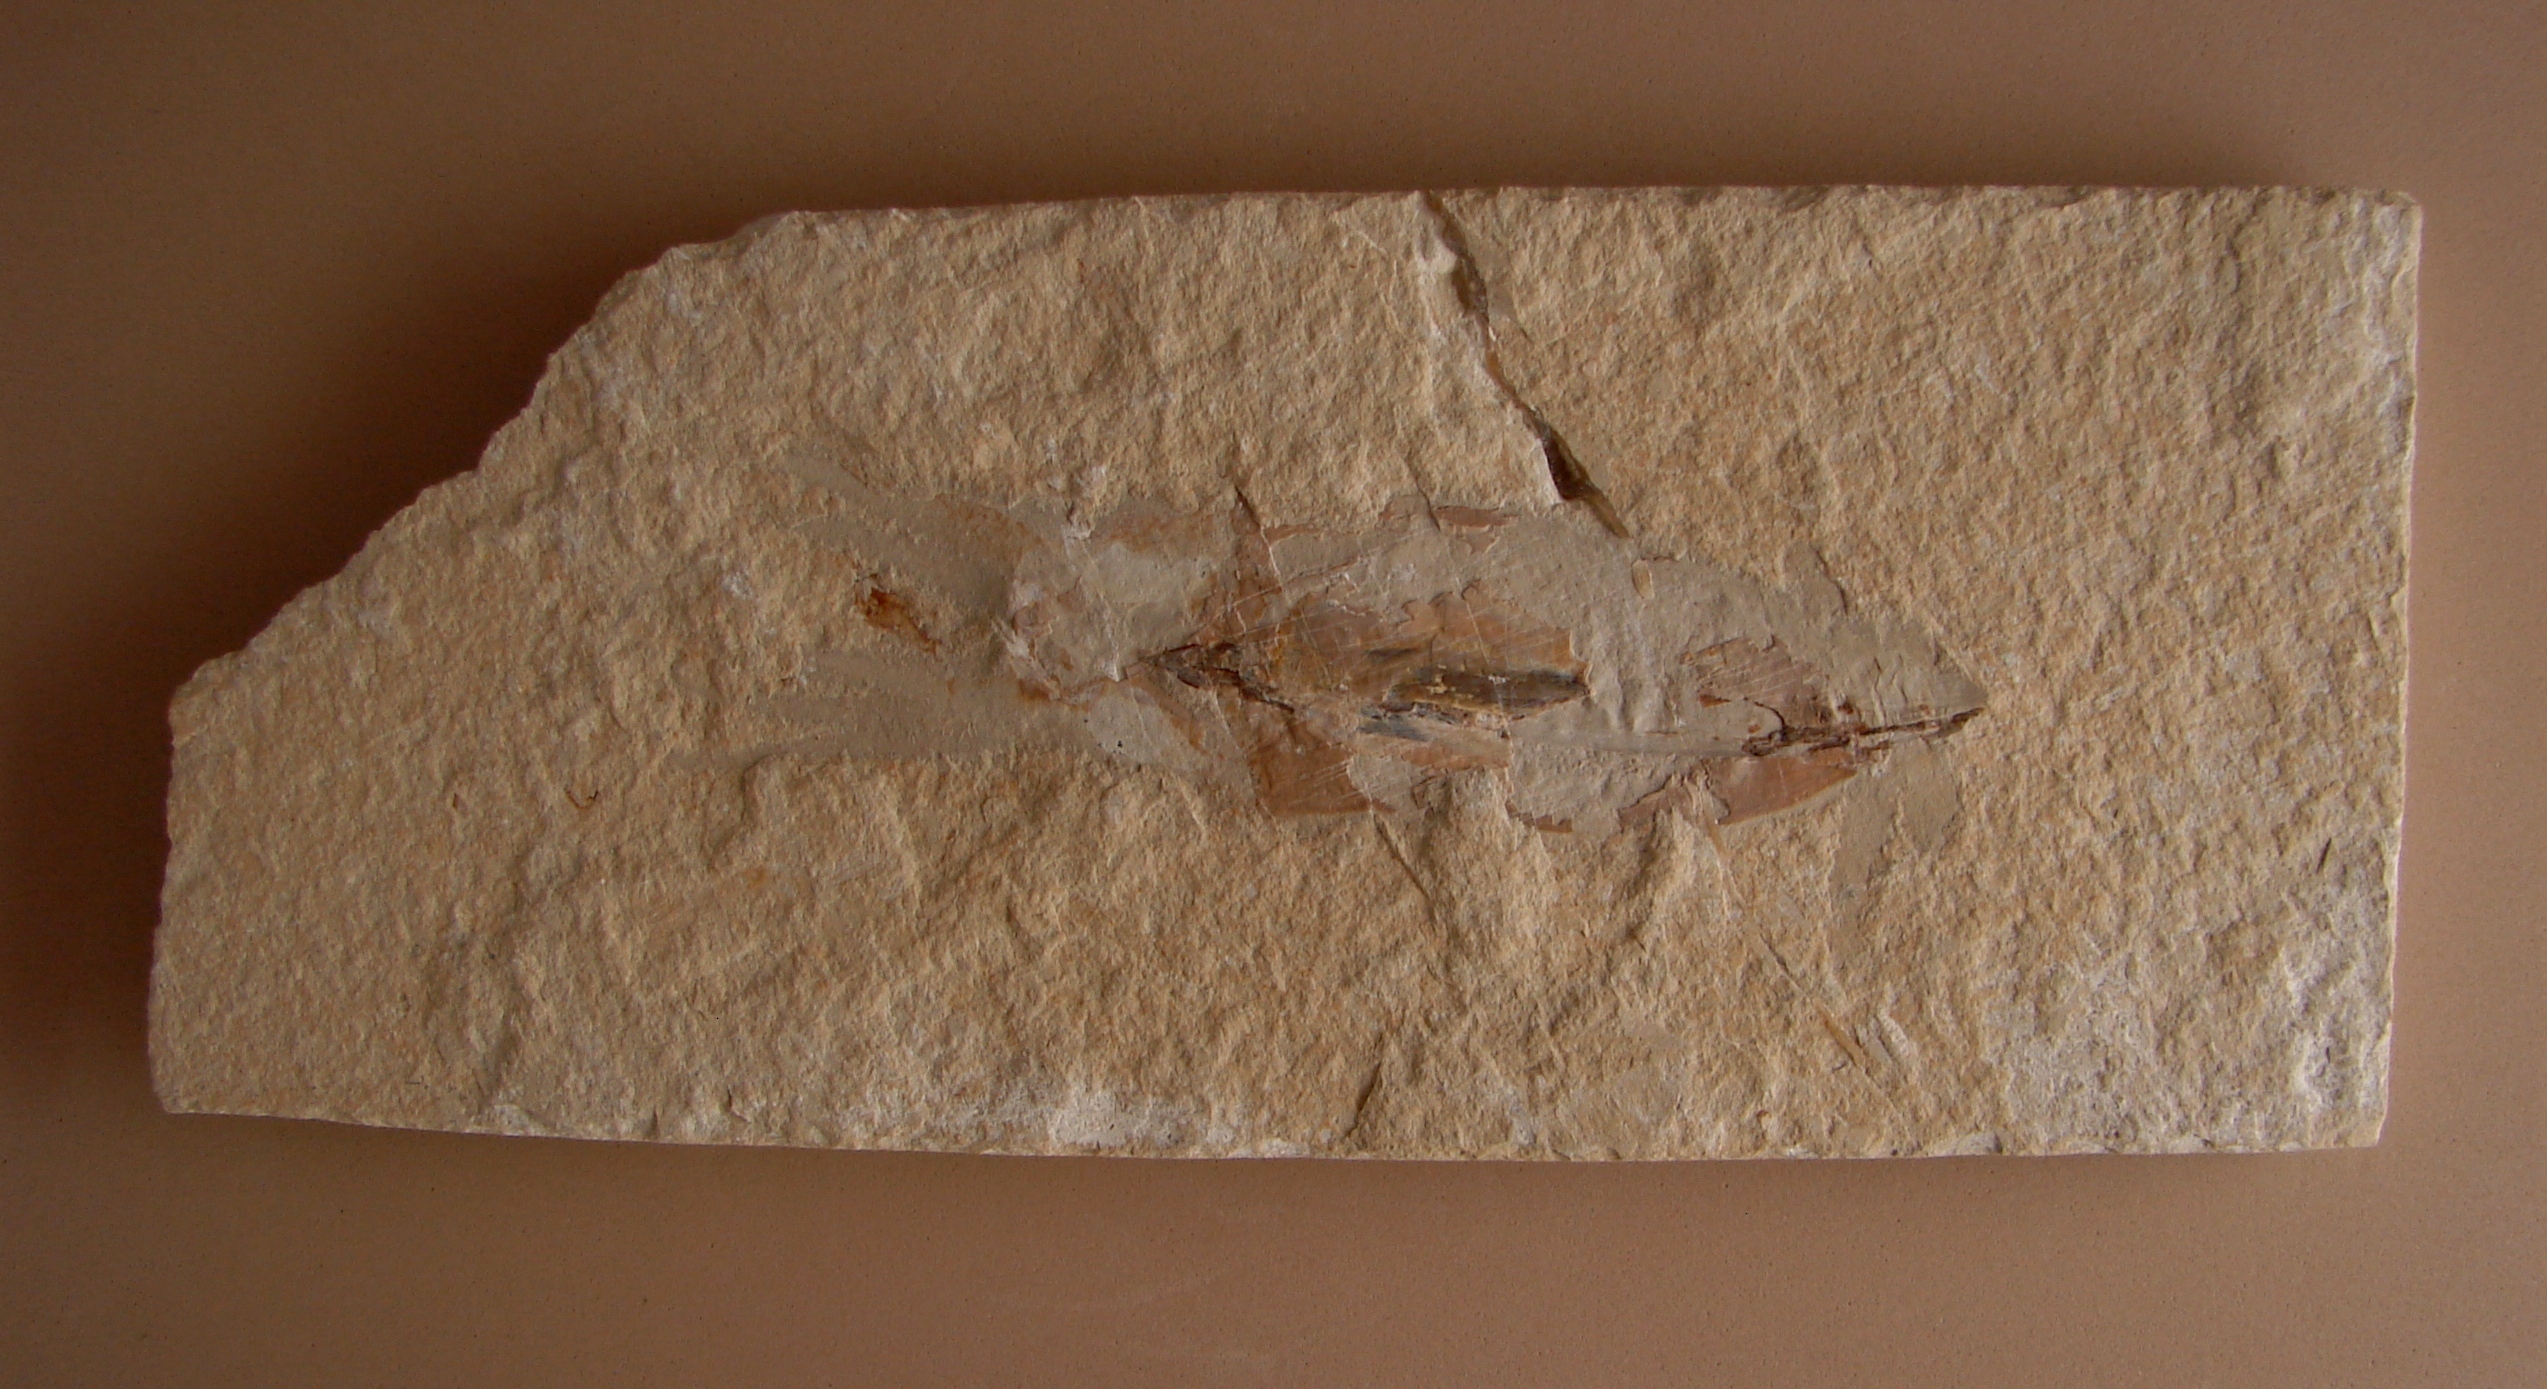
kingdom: Animalia
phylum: Mollusca
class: Cephalopoda
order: Octopoda
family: Palaeololiginidae
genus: Rachiteuthis
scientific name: Rachiteuthis donovani
